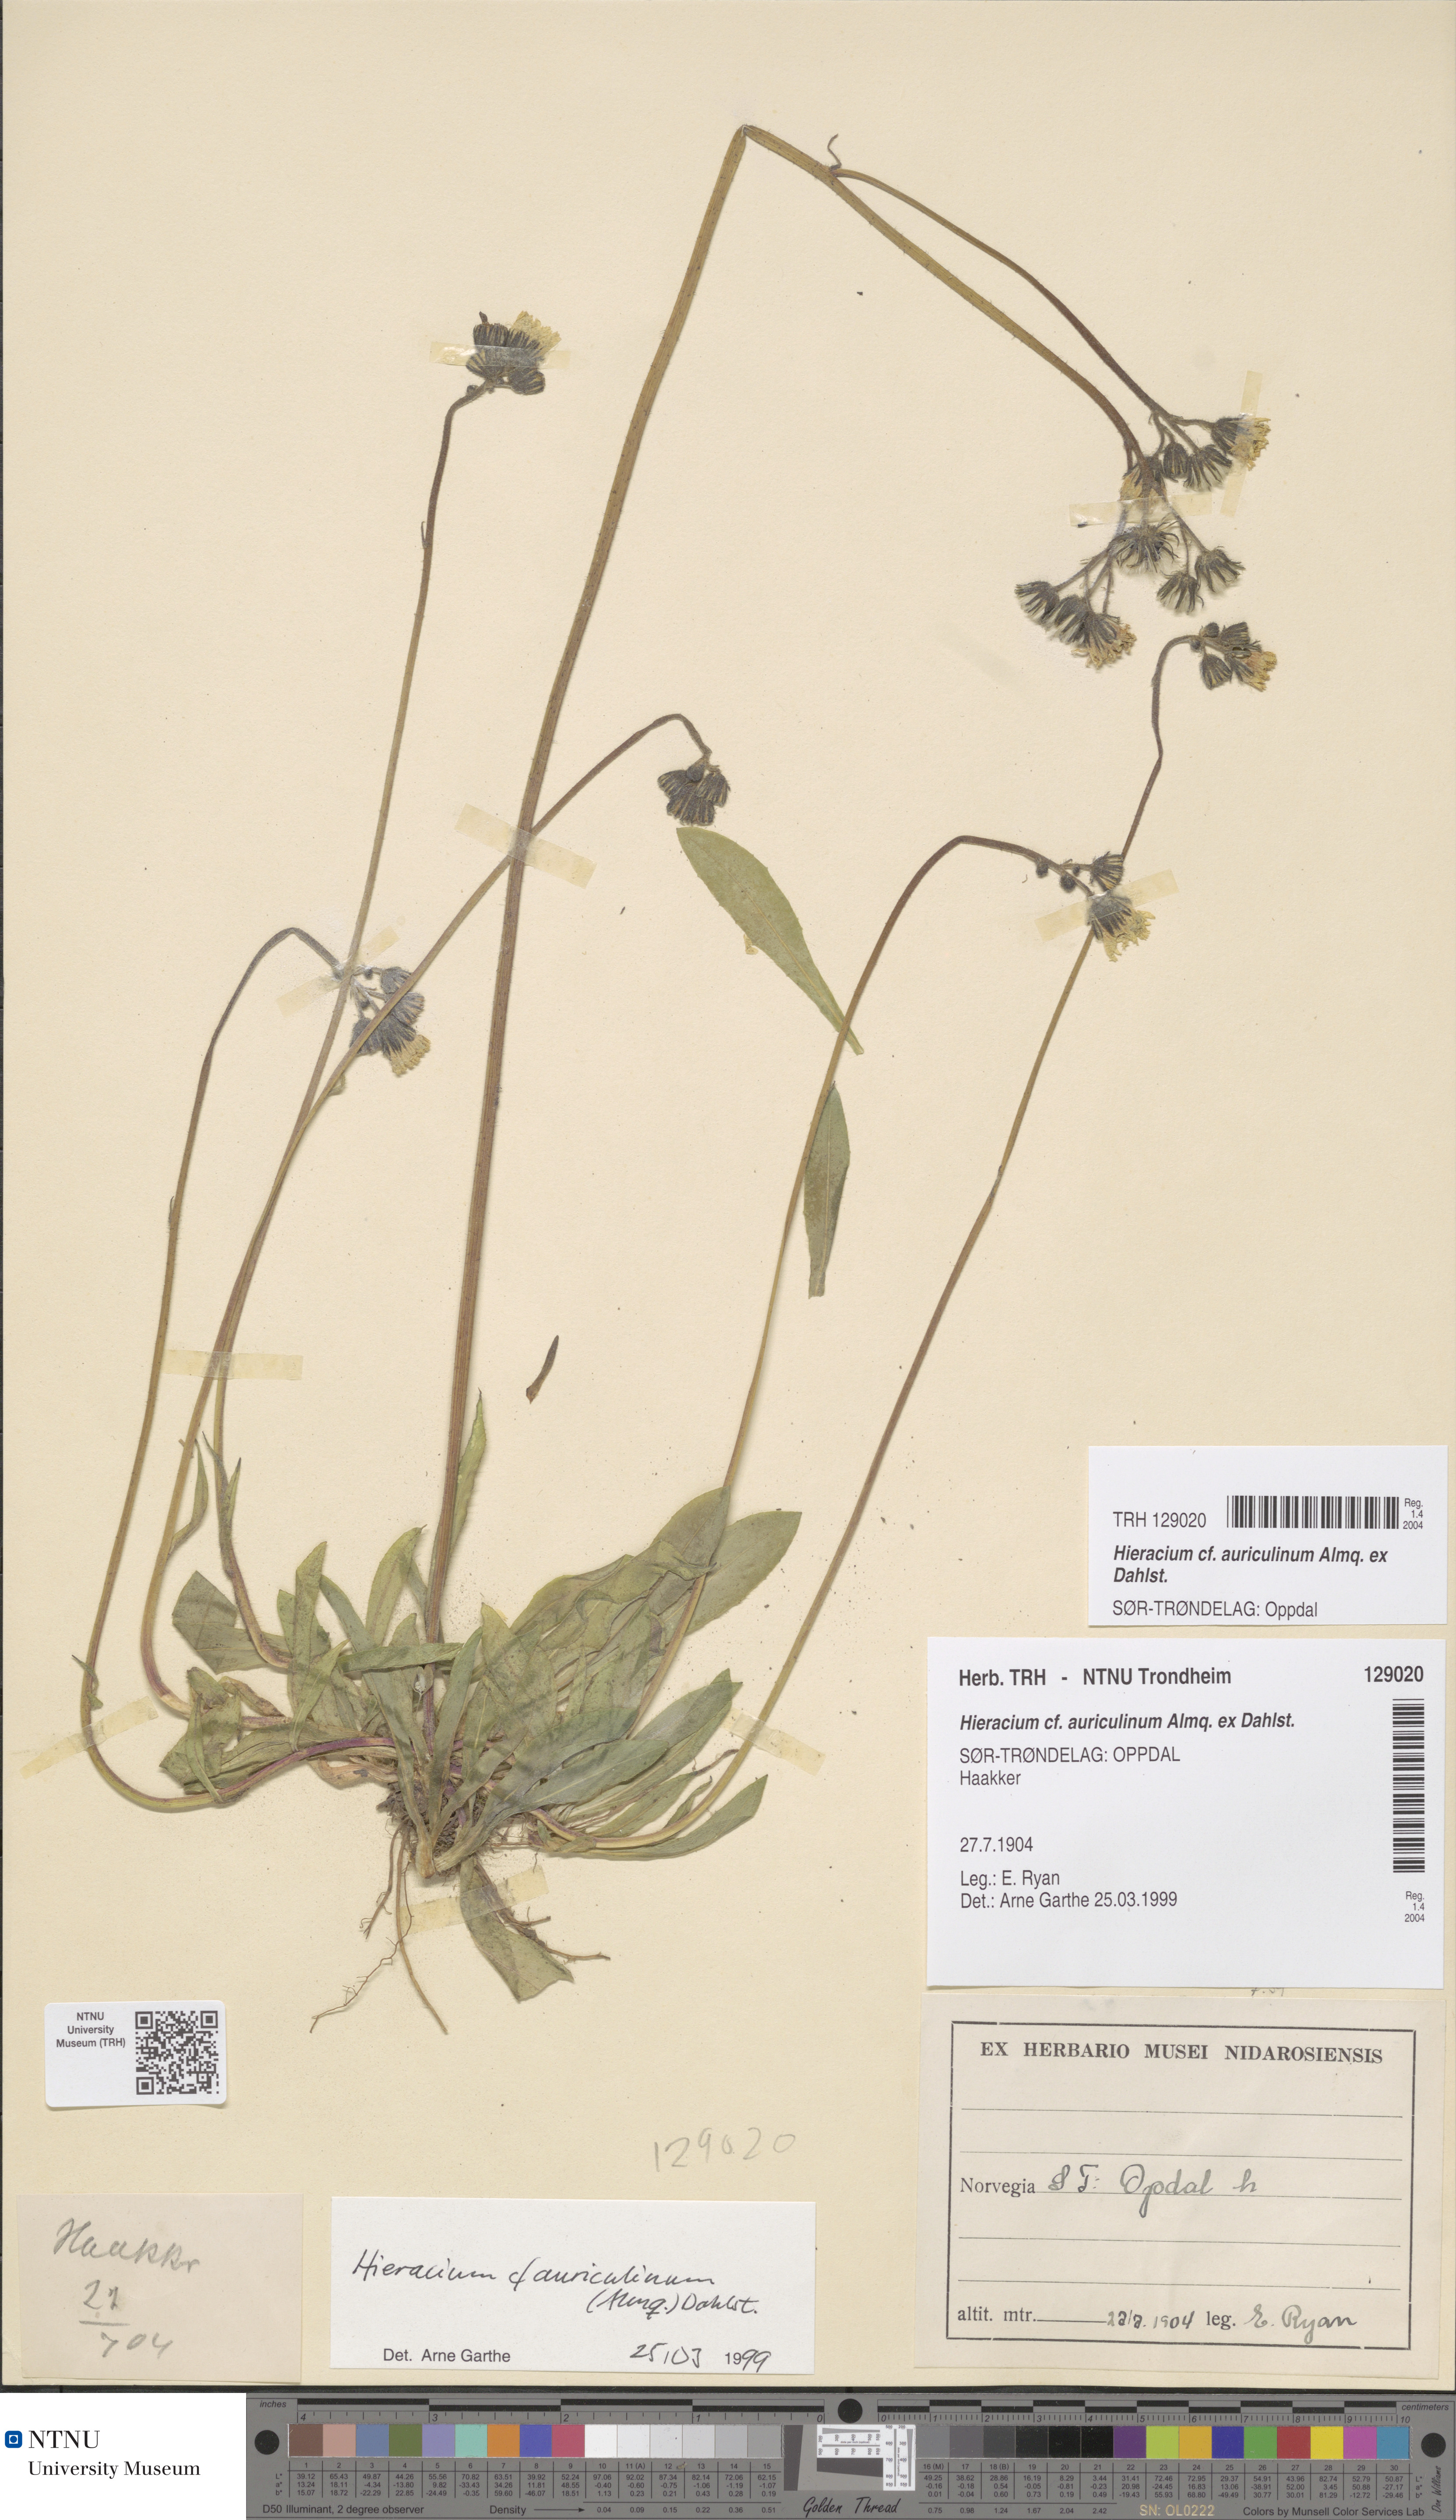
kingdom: Plantae
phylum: Tracheophyta
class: Magnoliopsida
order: Asterales
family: Asteraceae
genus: Pilosella
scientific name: Pilosella dubia
